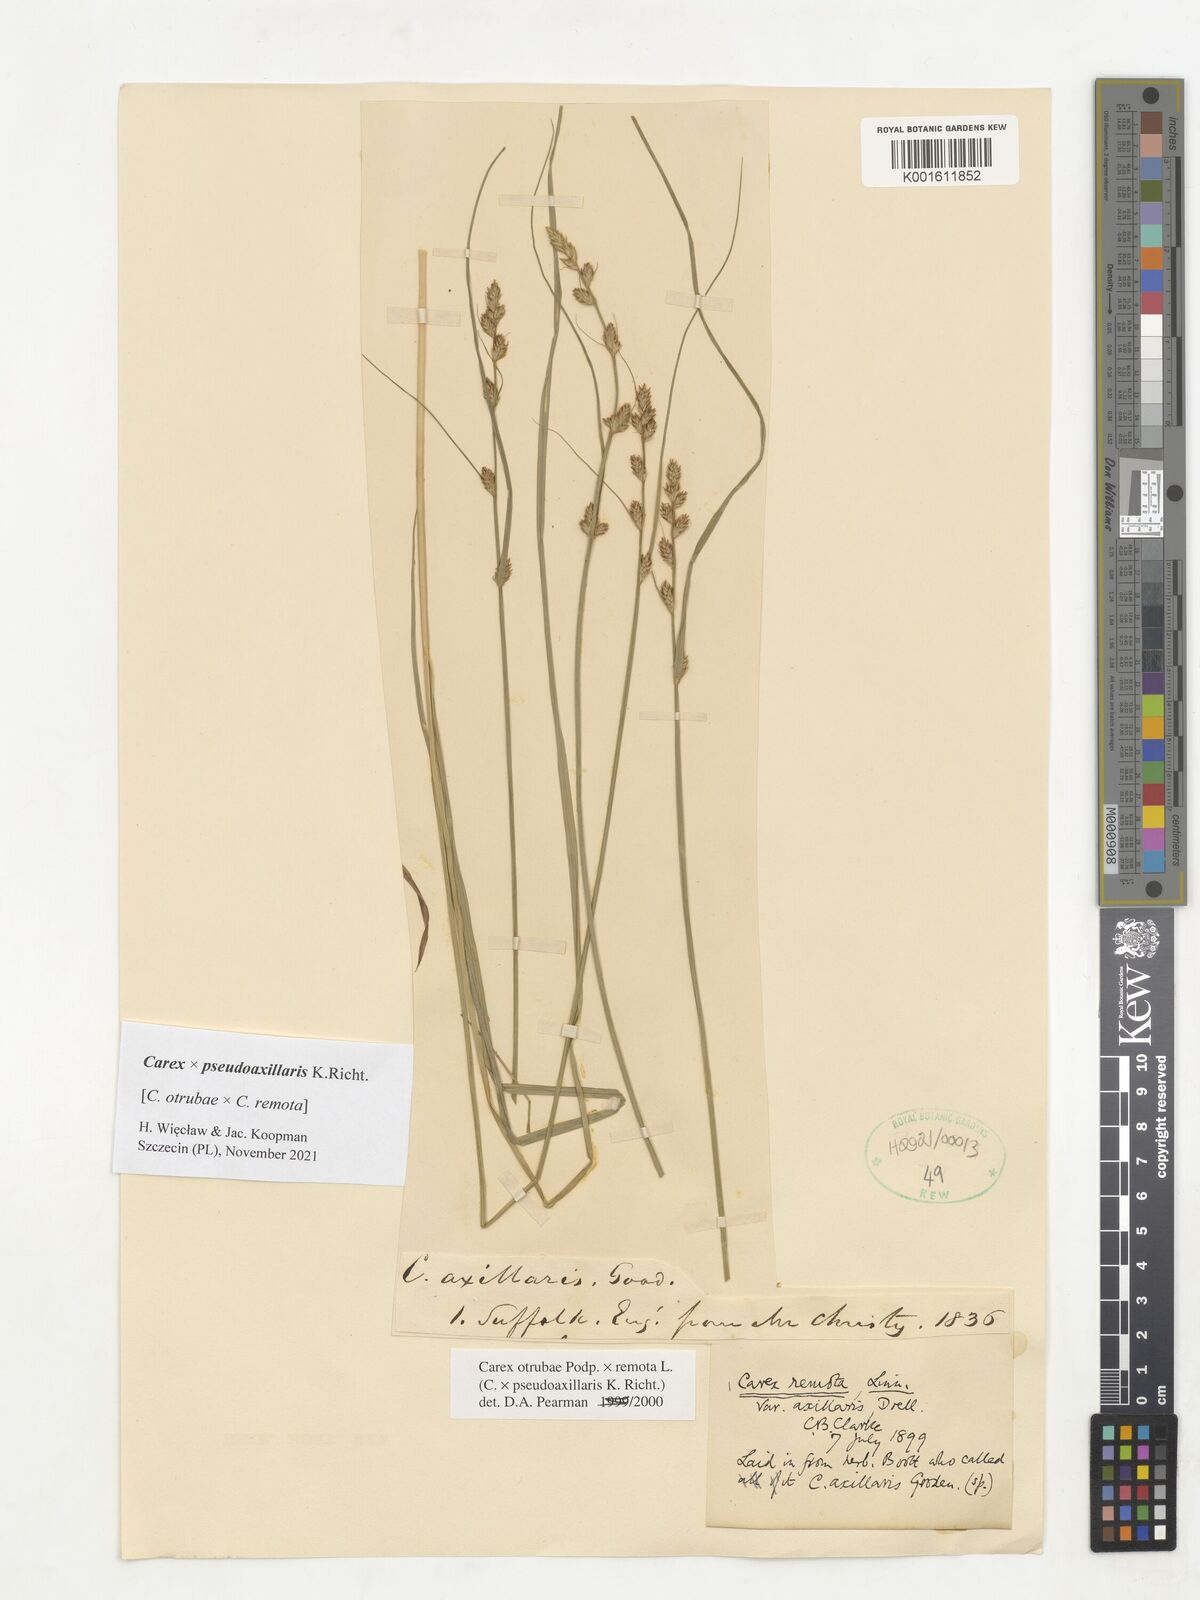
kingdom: Plantae
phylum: Tracheophyta
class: Liliopsida
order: Poales
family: Cyperaceae
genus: Carex
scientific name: Carex pseudoaxillaris
